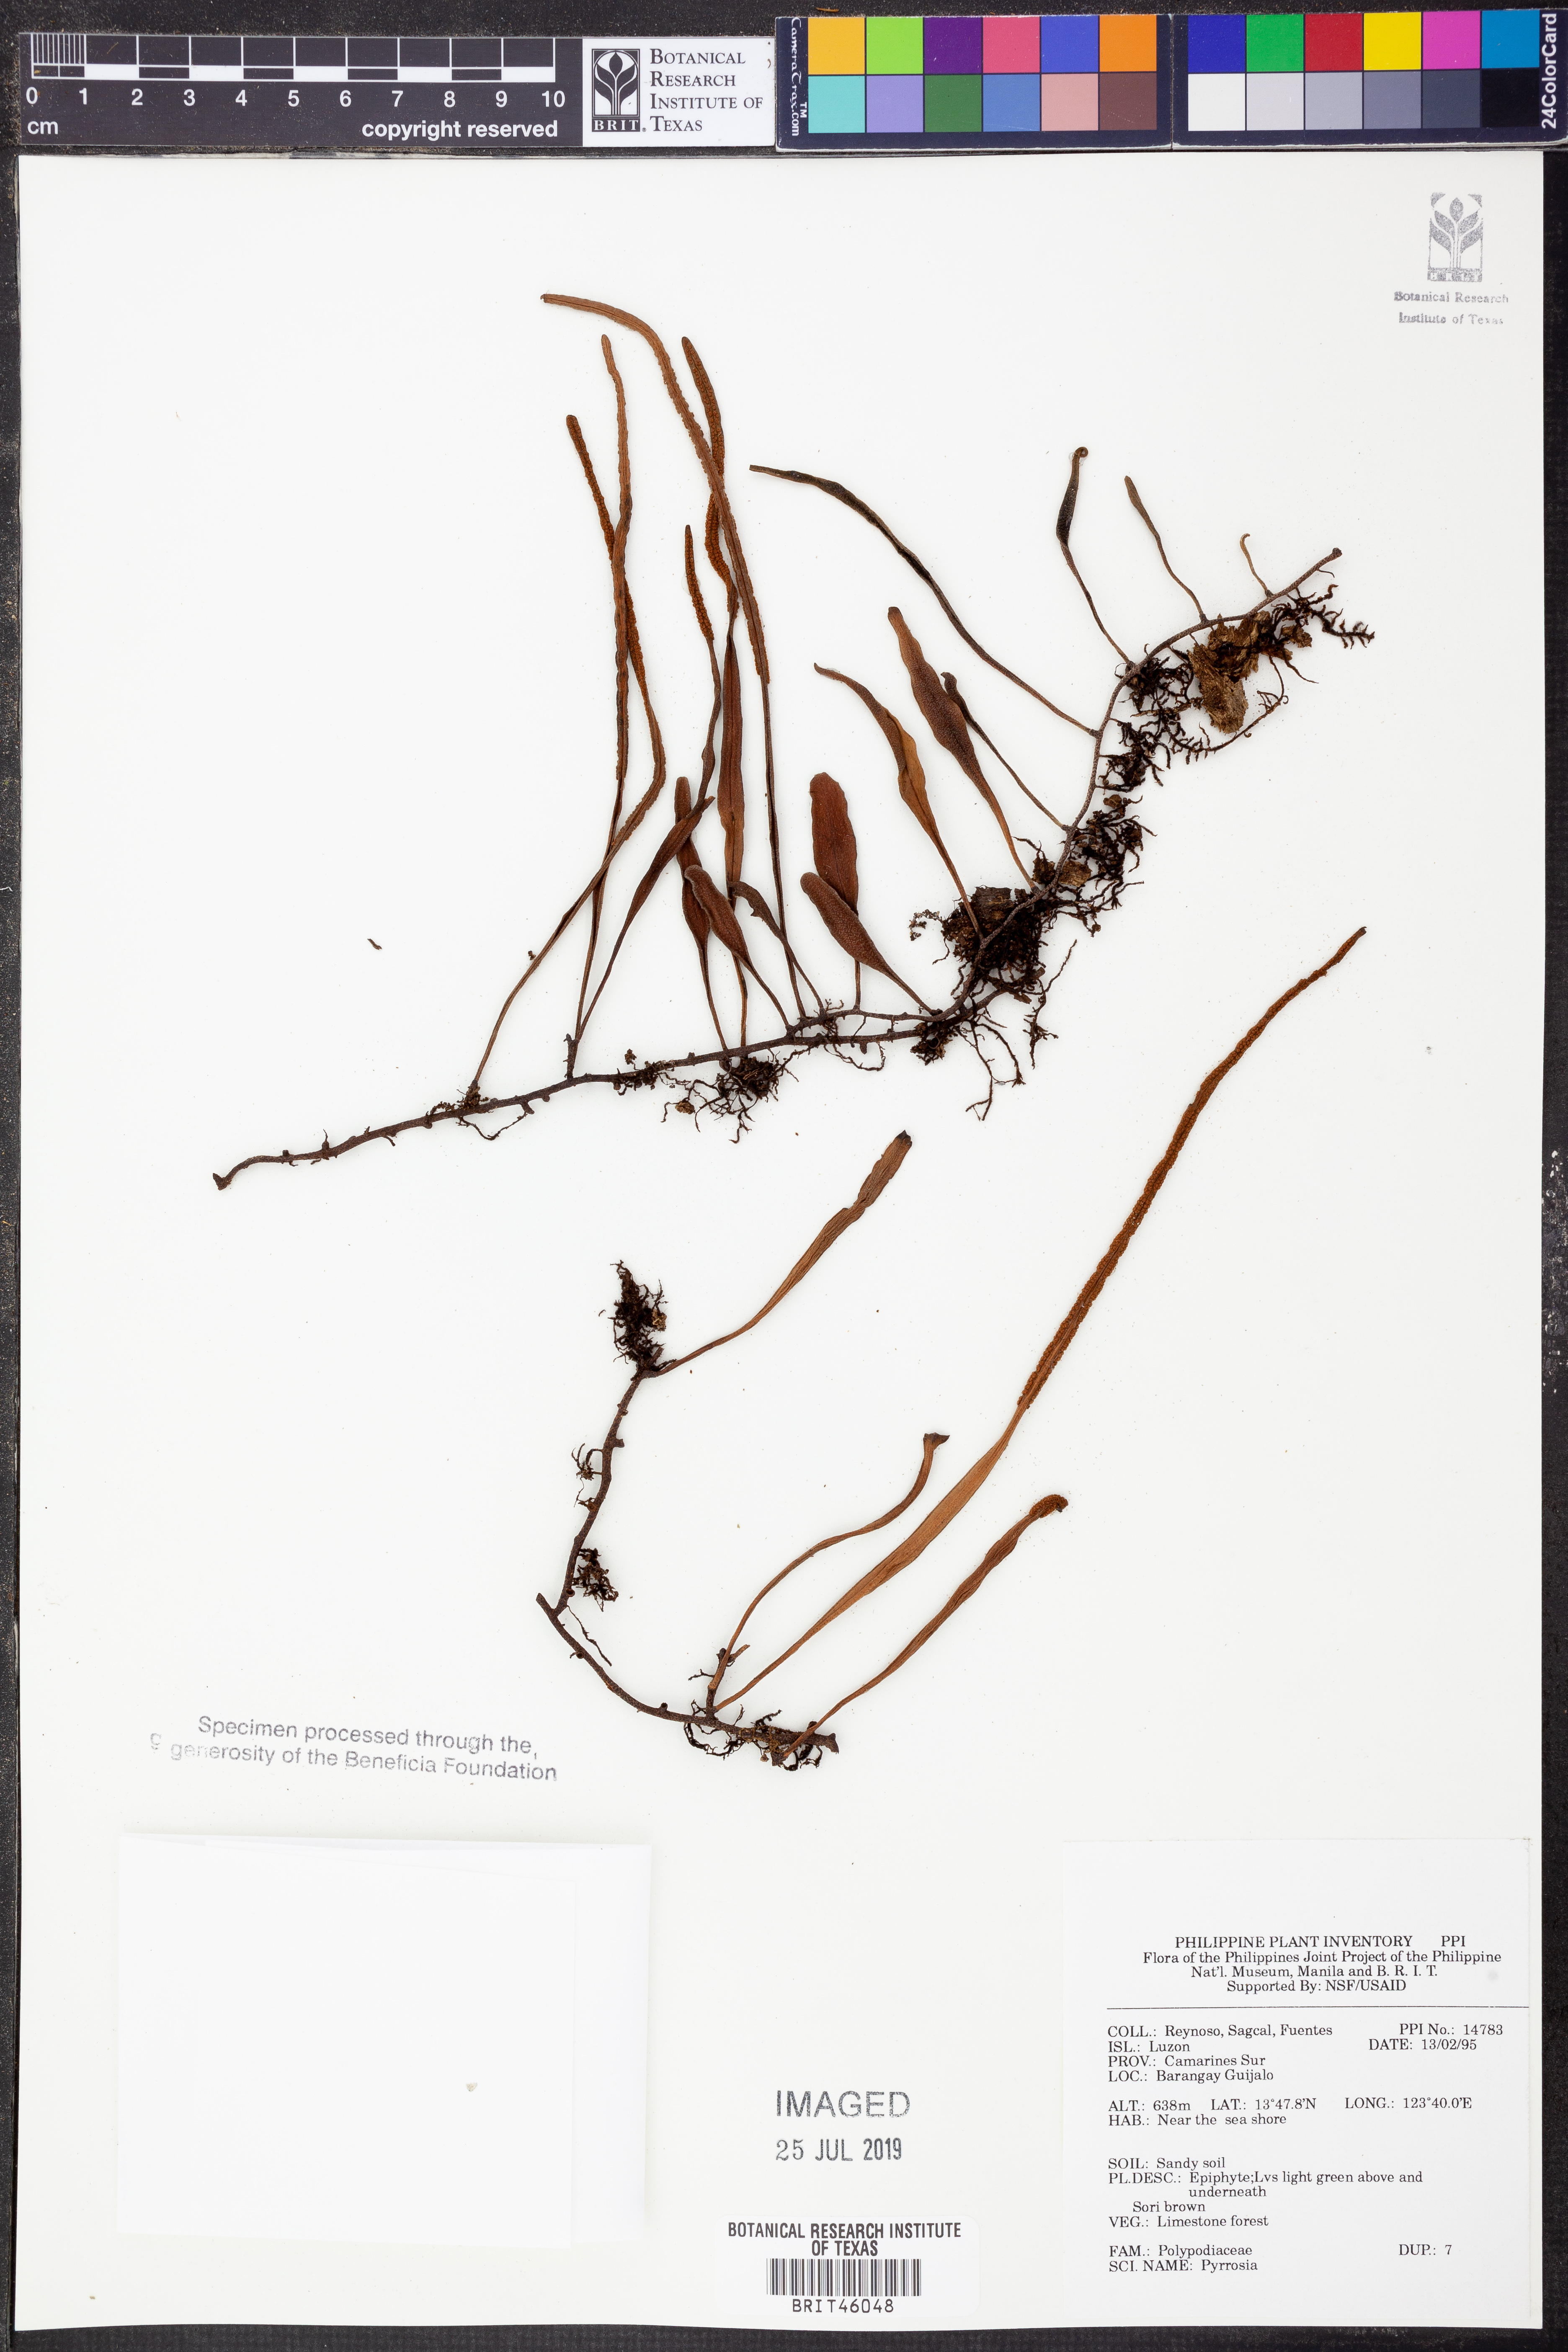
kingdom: Plantae
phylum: Tracheophyta
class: Polypodiopsida
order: Polypodiales
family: Polypodiaceae
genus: Pyrrosia
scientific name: Pyrrosia
